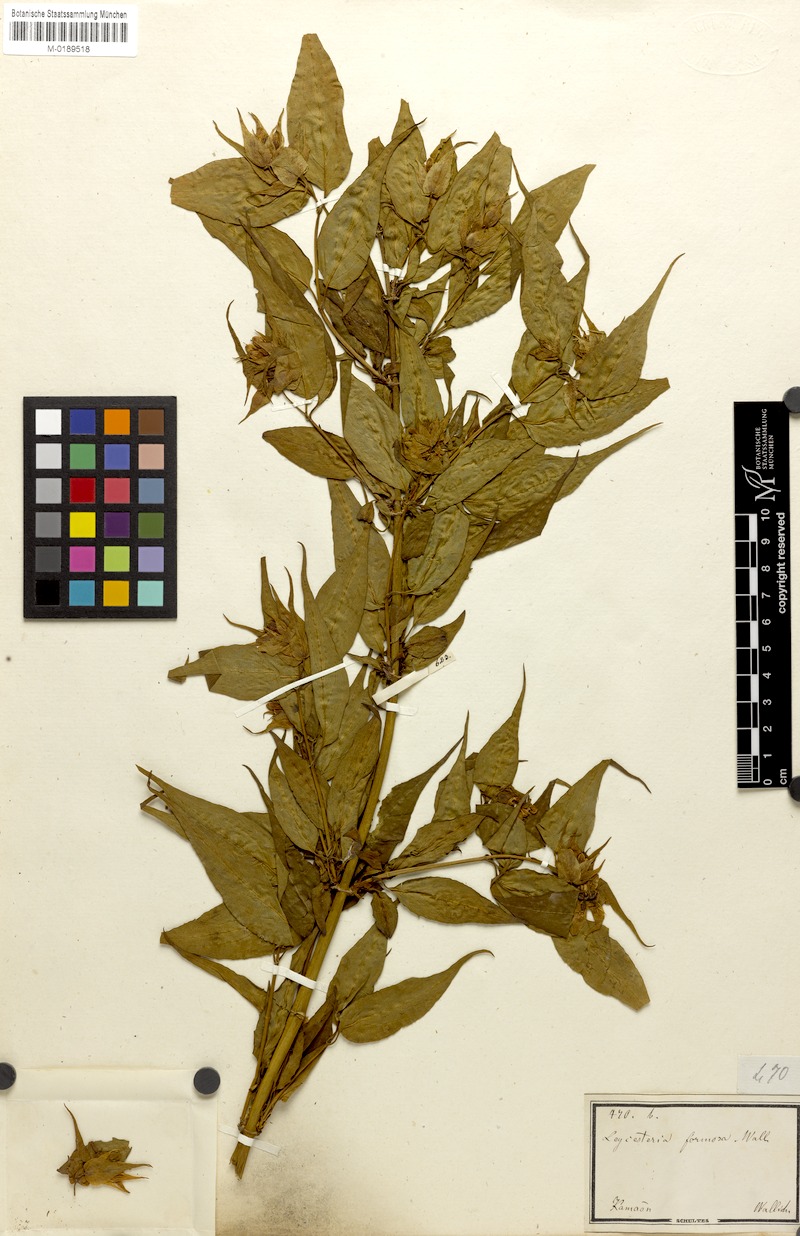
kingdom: Plantae
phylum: Tracheophyta
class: Magnoliopsida
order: Dipsacales
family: Caprifoliaceae
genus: Leycesteria
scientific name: Leycesteria formosa
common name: Himalayan honeysuckle
